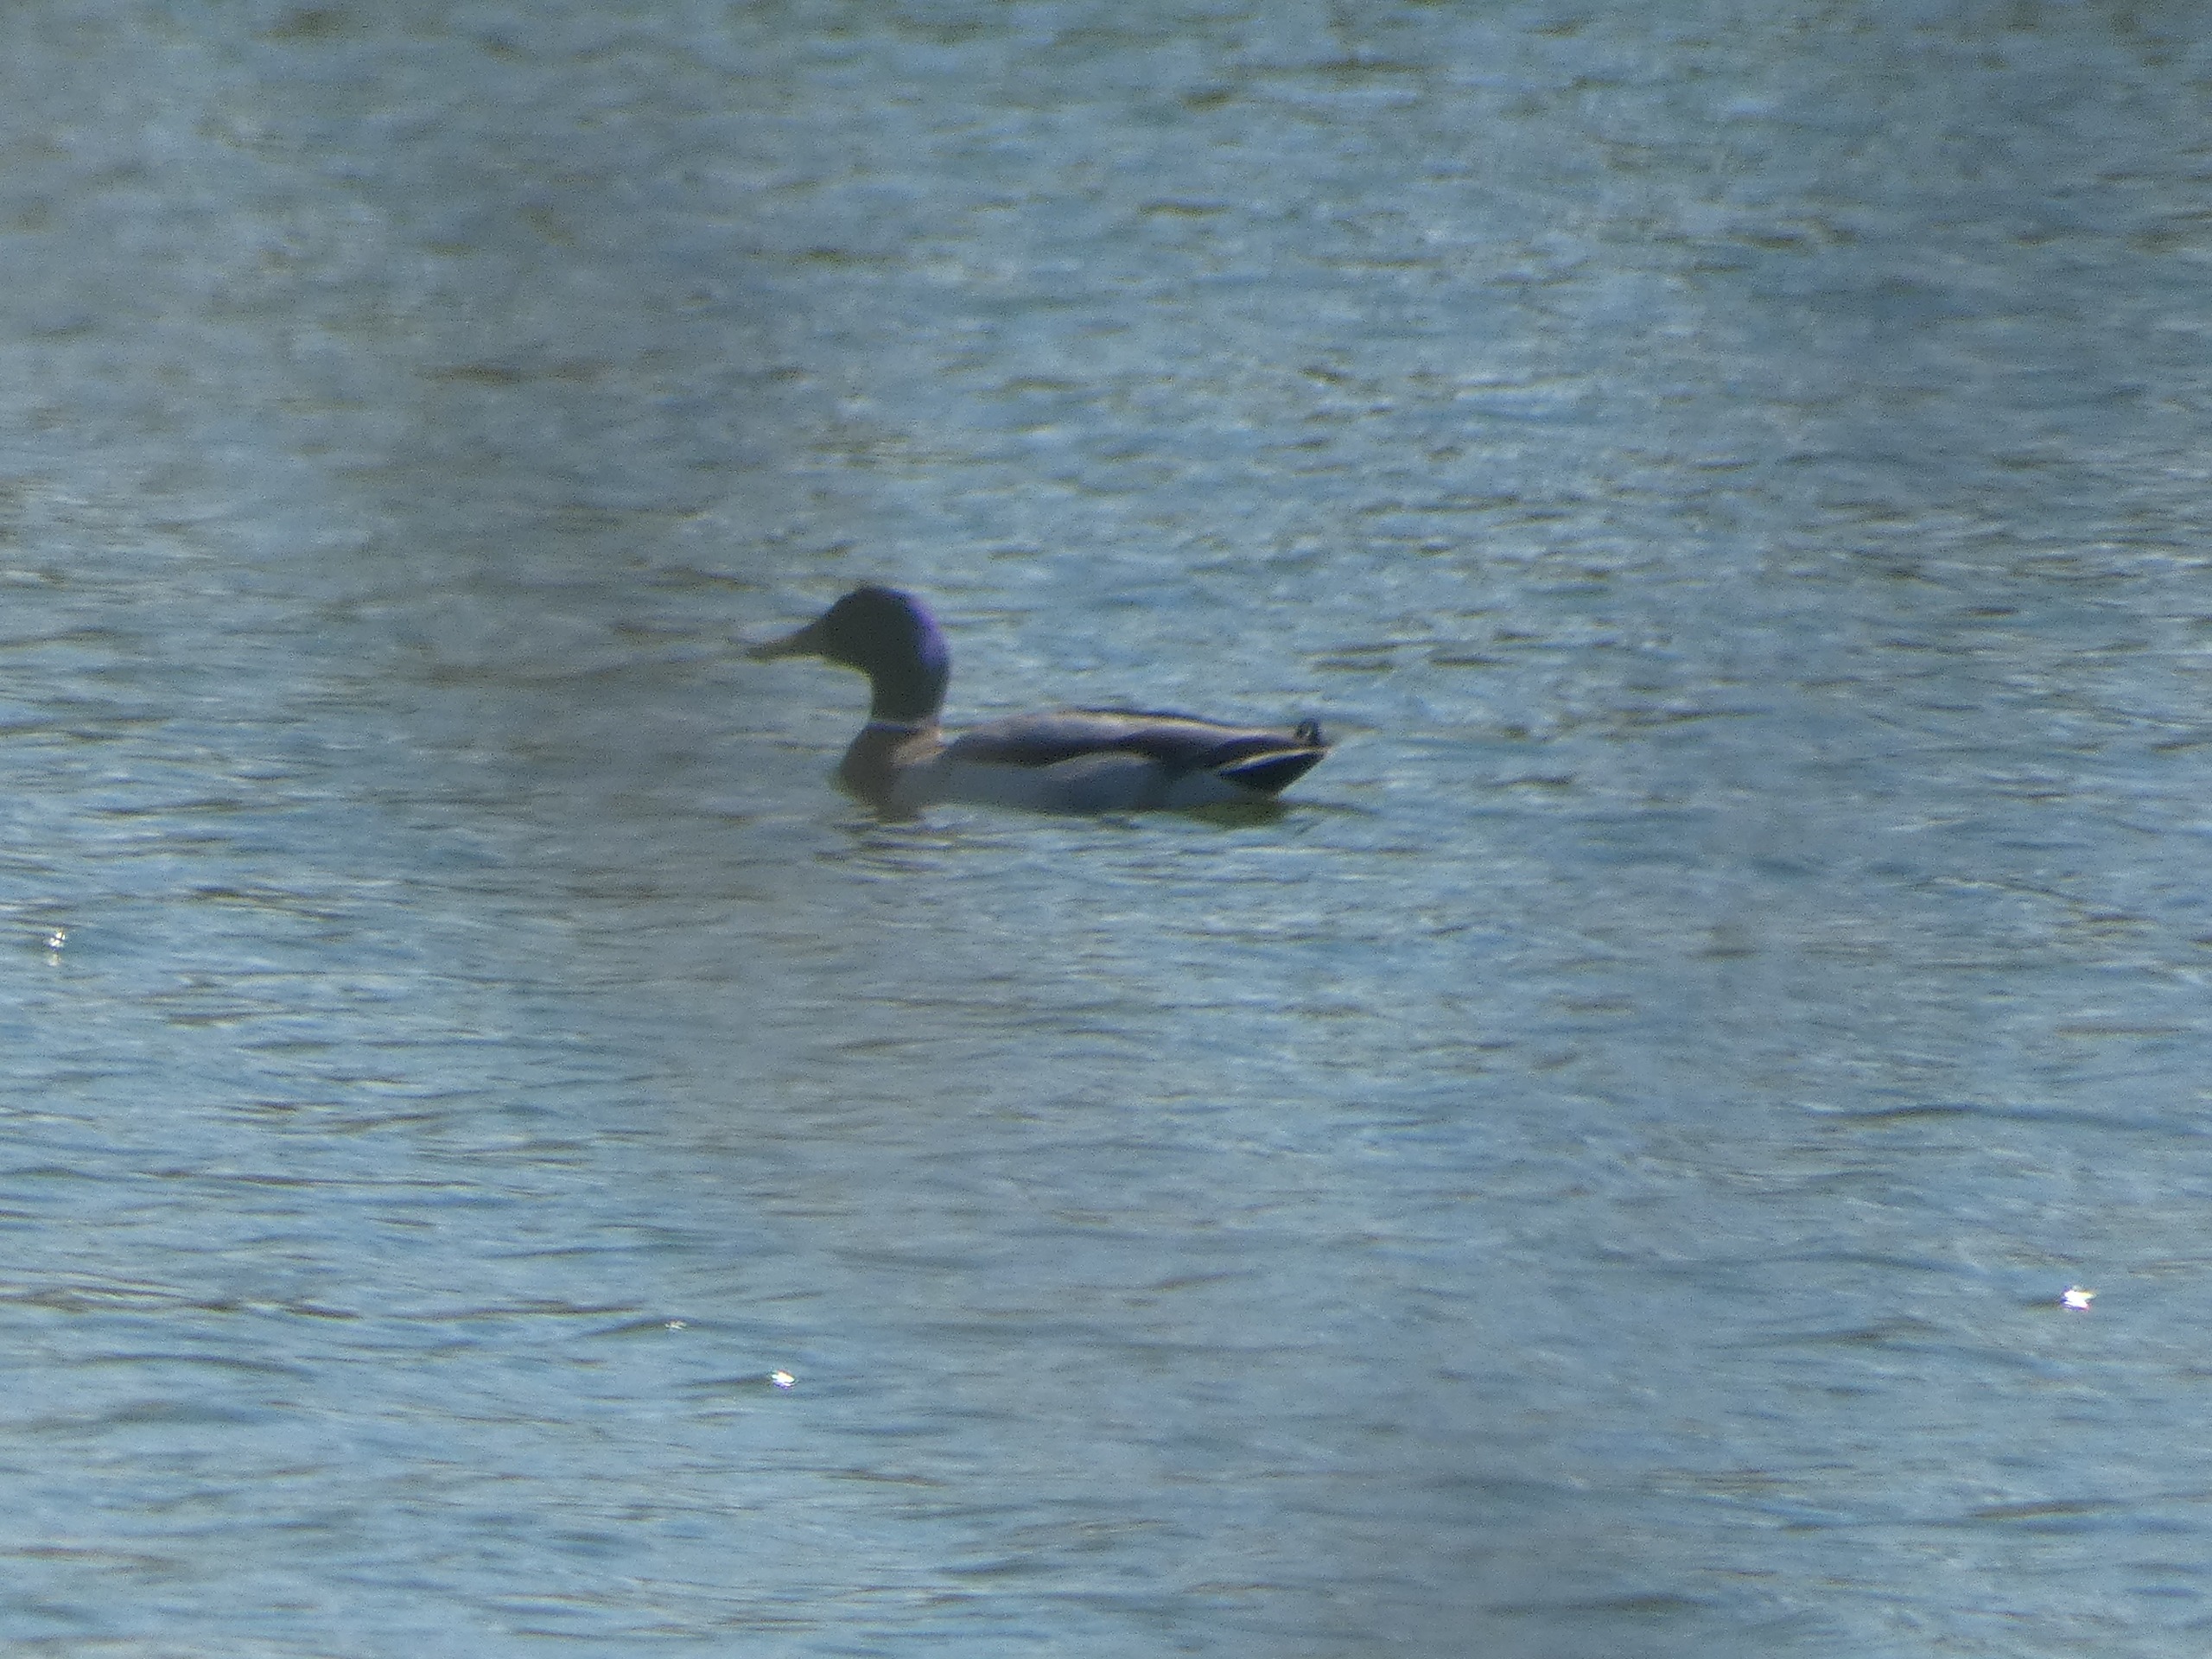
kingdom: Animalia
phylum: Chordata
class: Aves
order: Anseriformes
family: Anatidae
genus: Anas
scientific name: Anas platyrhynchos
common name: Gråand
